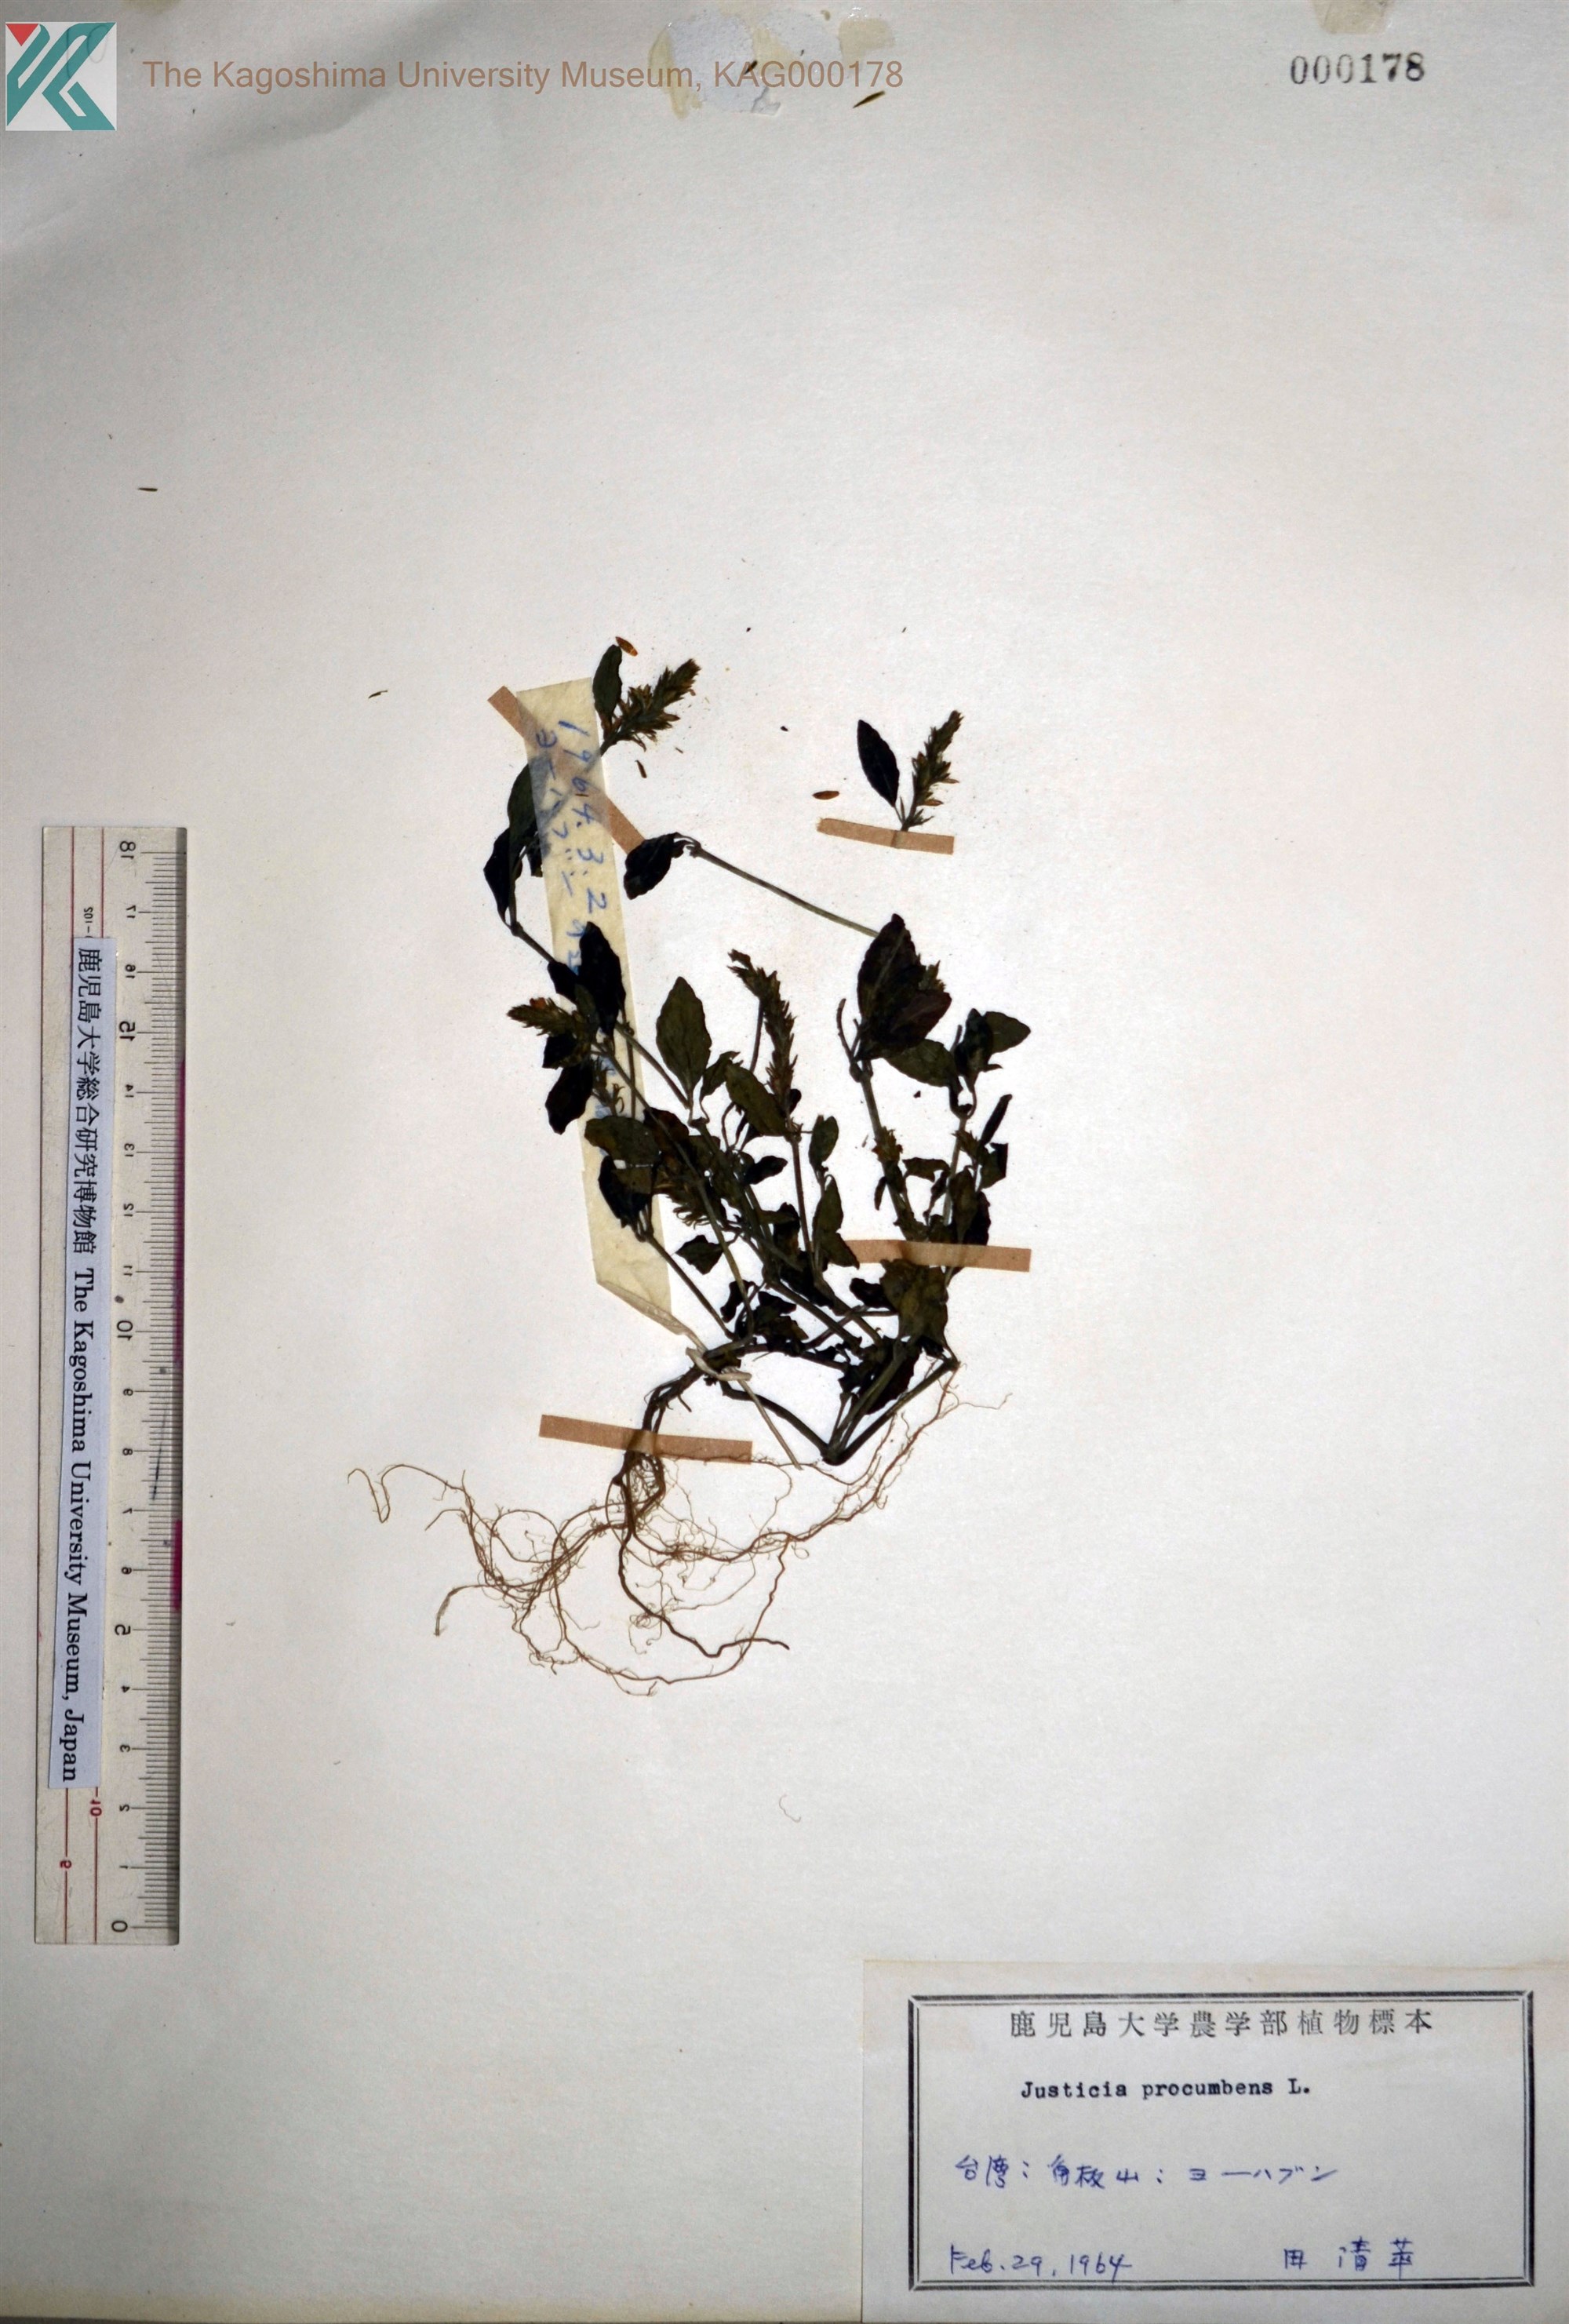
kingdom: Plantae
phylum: Tracheophyta
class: Magnoliopsida
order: Lamiales
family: Acanthaceae
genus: Rostellularia
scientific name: Rostellularia procumbens
